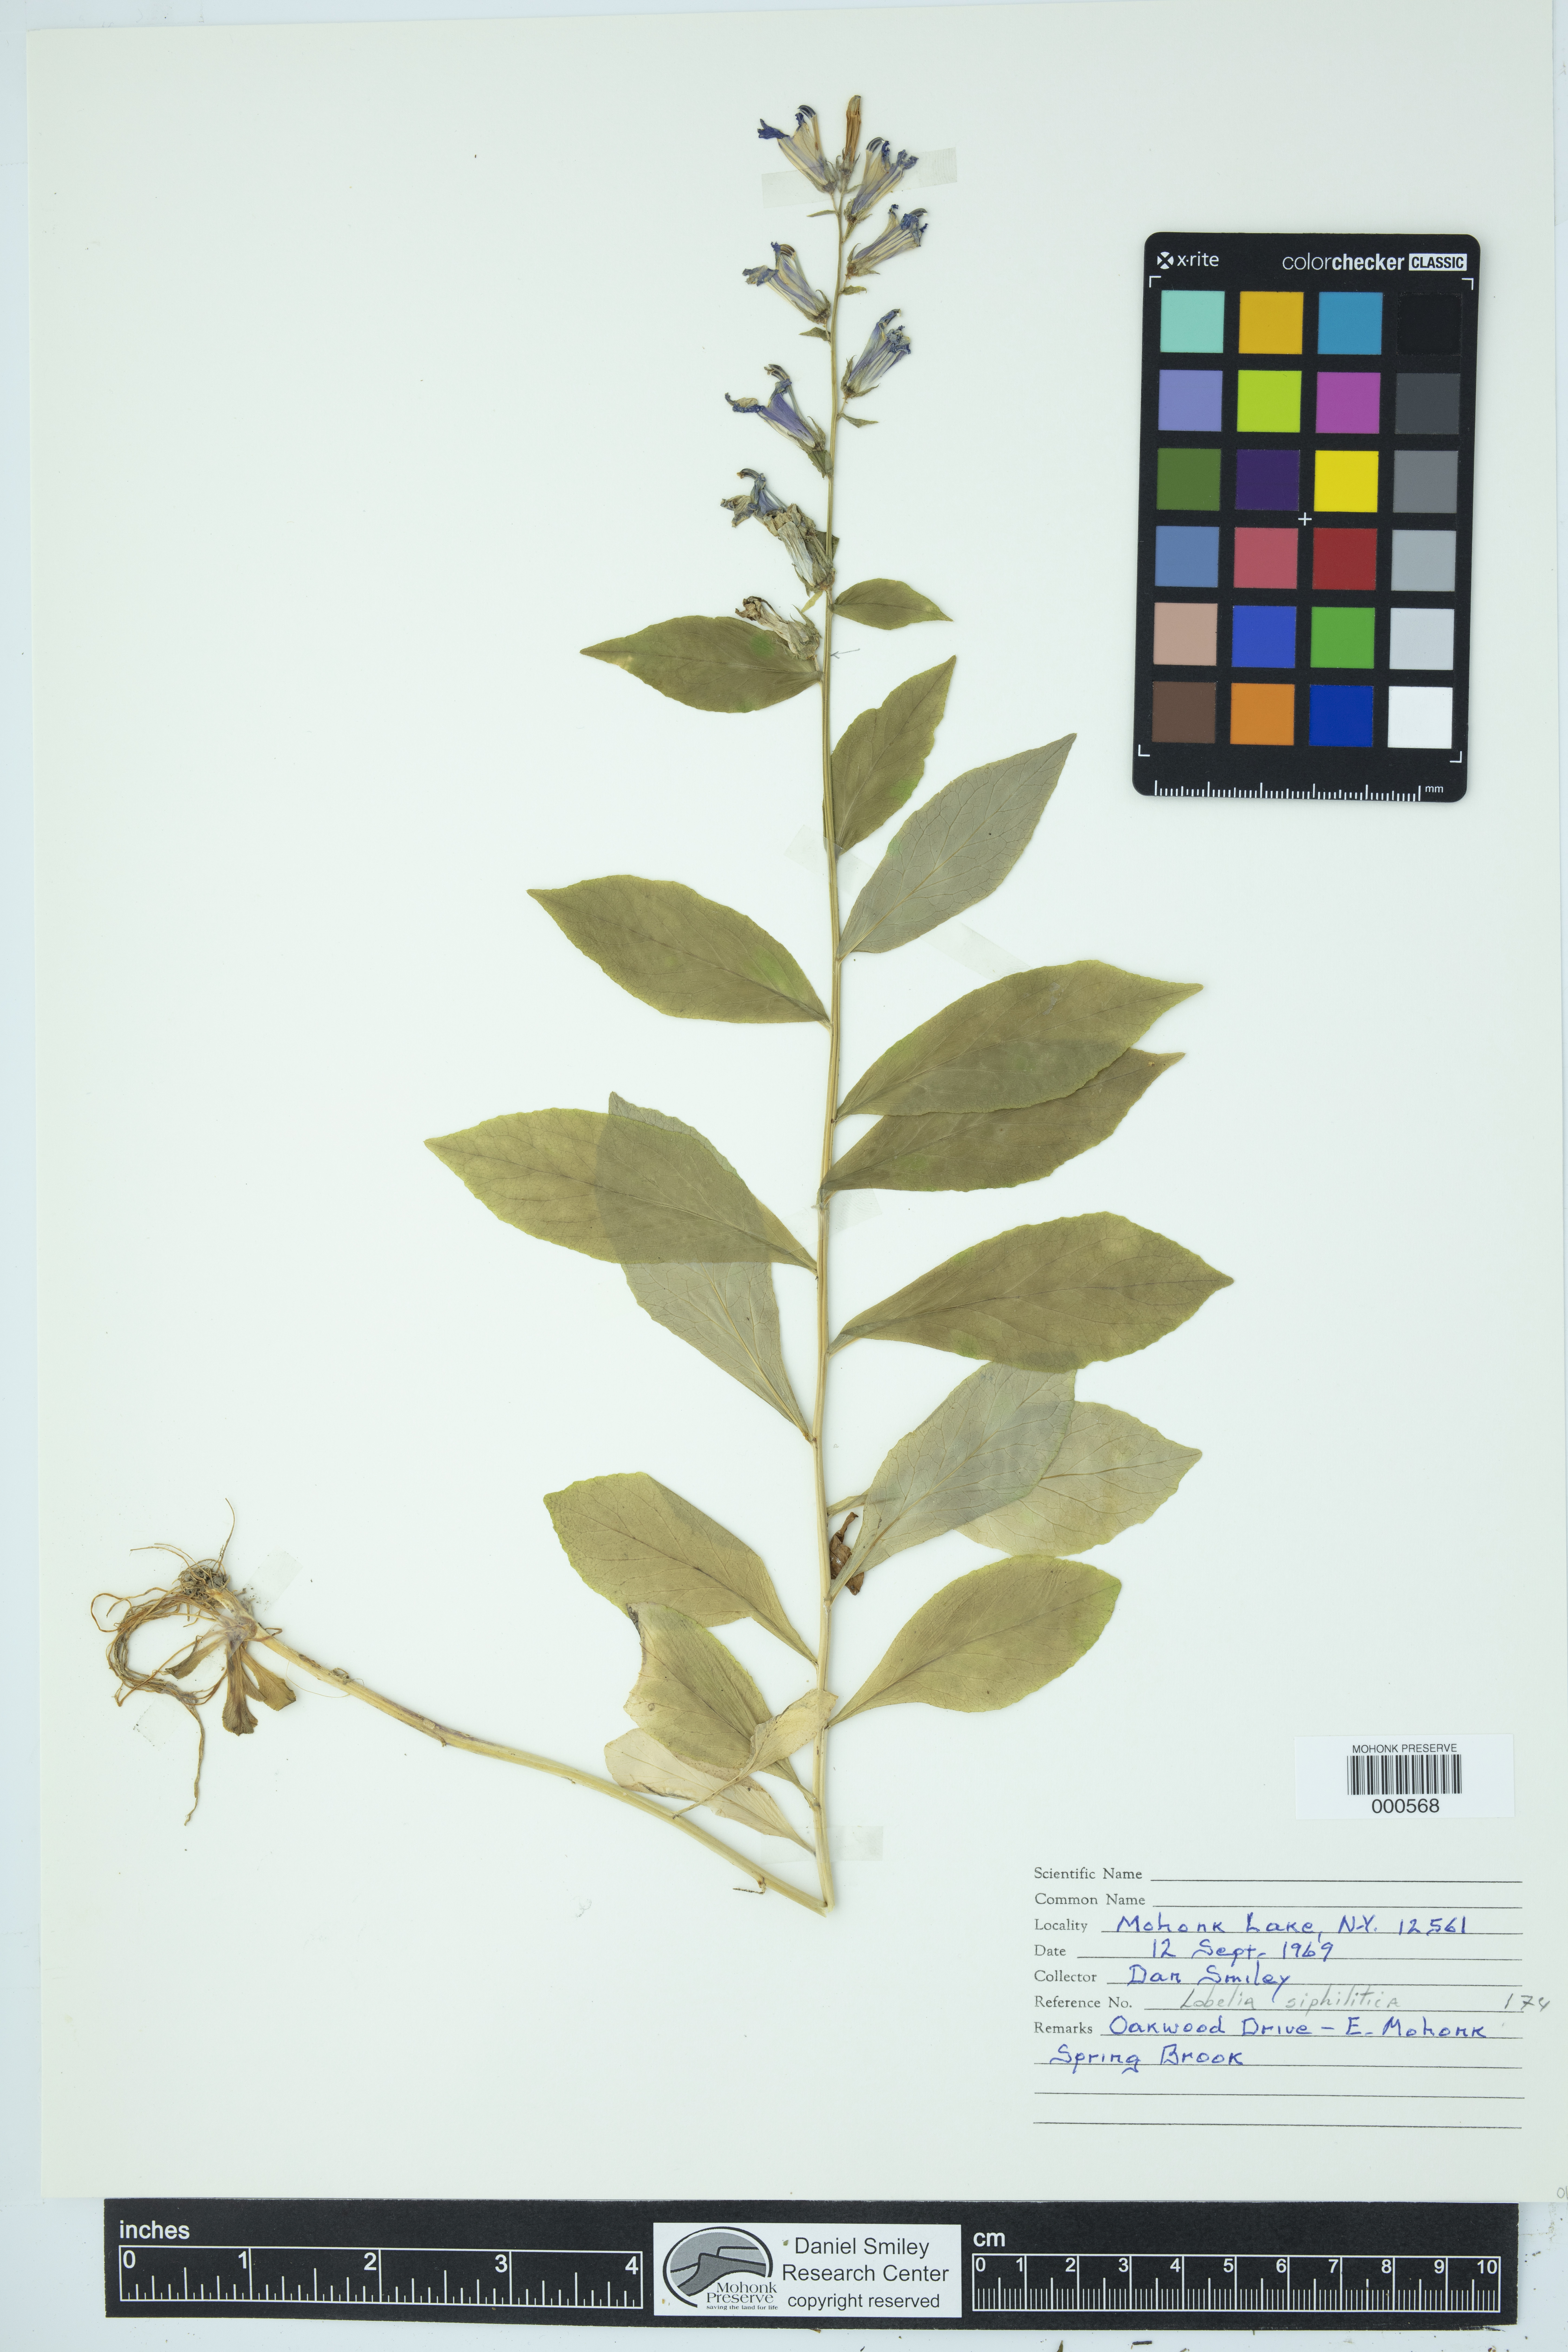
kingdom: Plantae
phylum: Tracheophyta
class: Magnoliopsida
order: Asterales
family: Campanulaceae
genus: Lobelia
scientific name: Lobelia siphilitica
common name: Great lobelia
